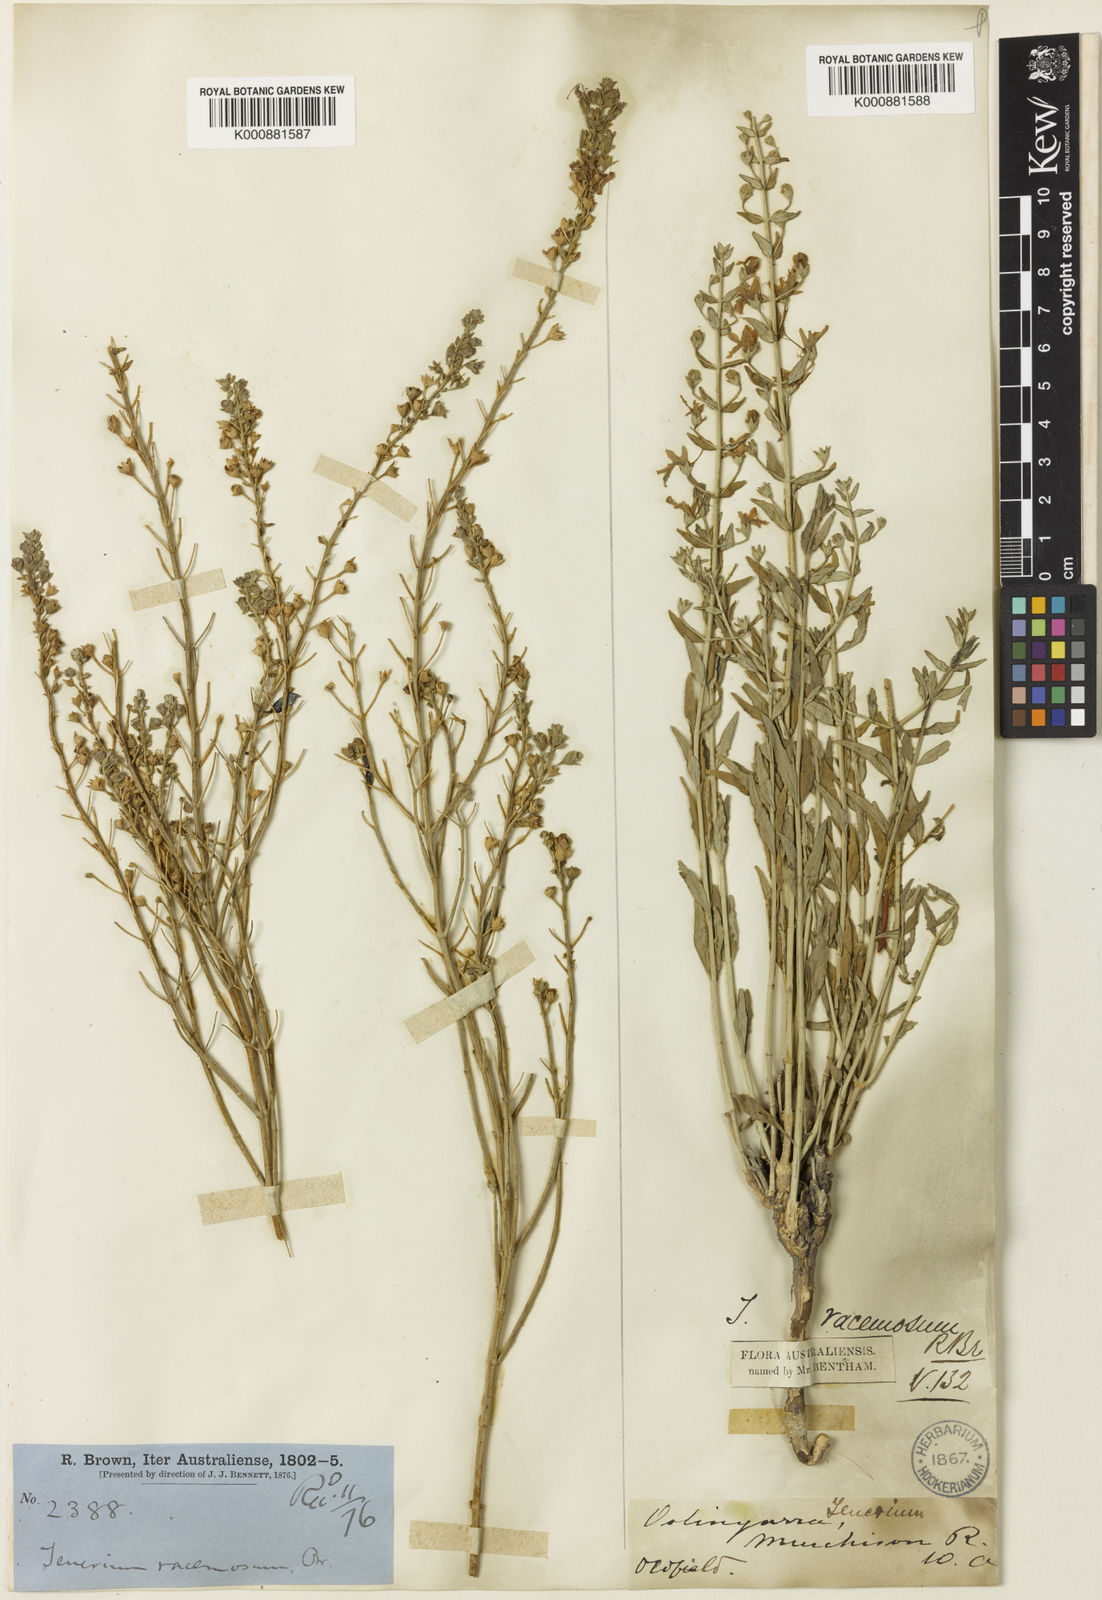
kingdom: Plantae
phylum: Tracheophyta
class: Magnoliopsida
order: Lamiales
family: Lamiaceae
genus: Teucrium
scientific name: Teucrium racemosum
